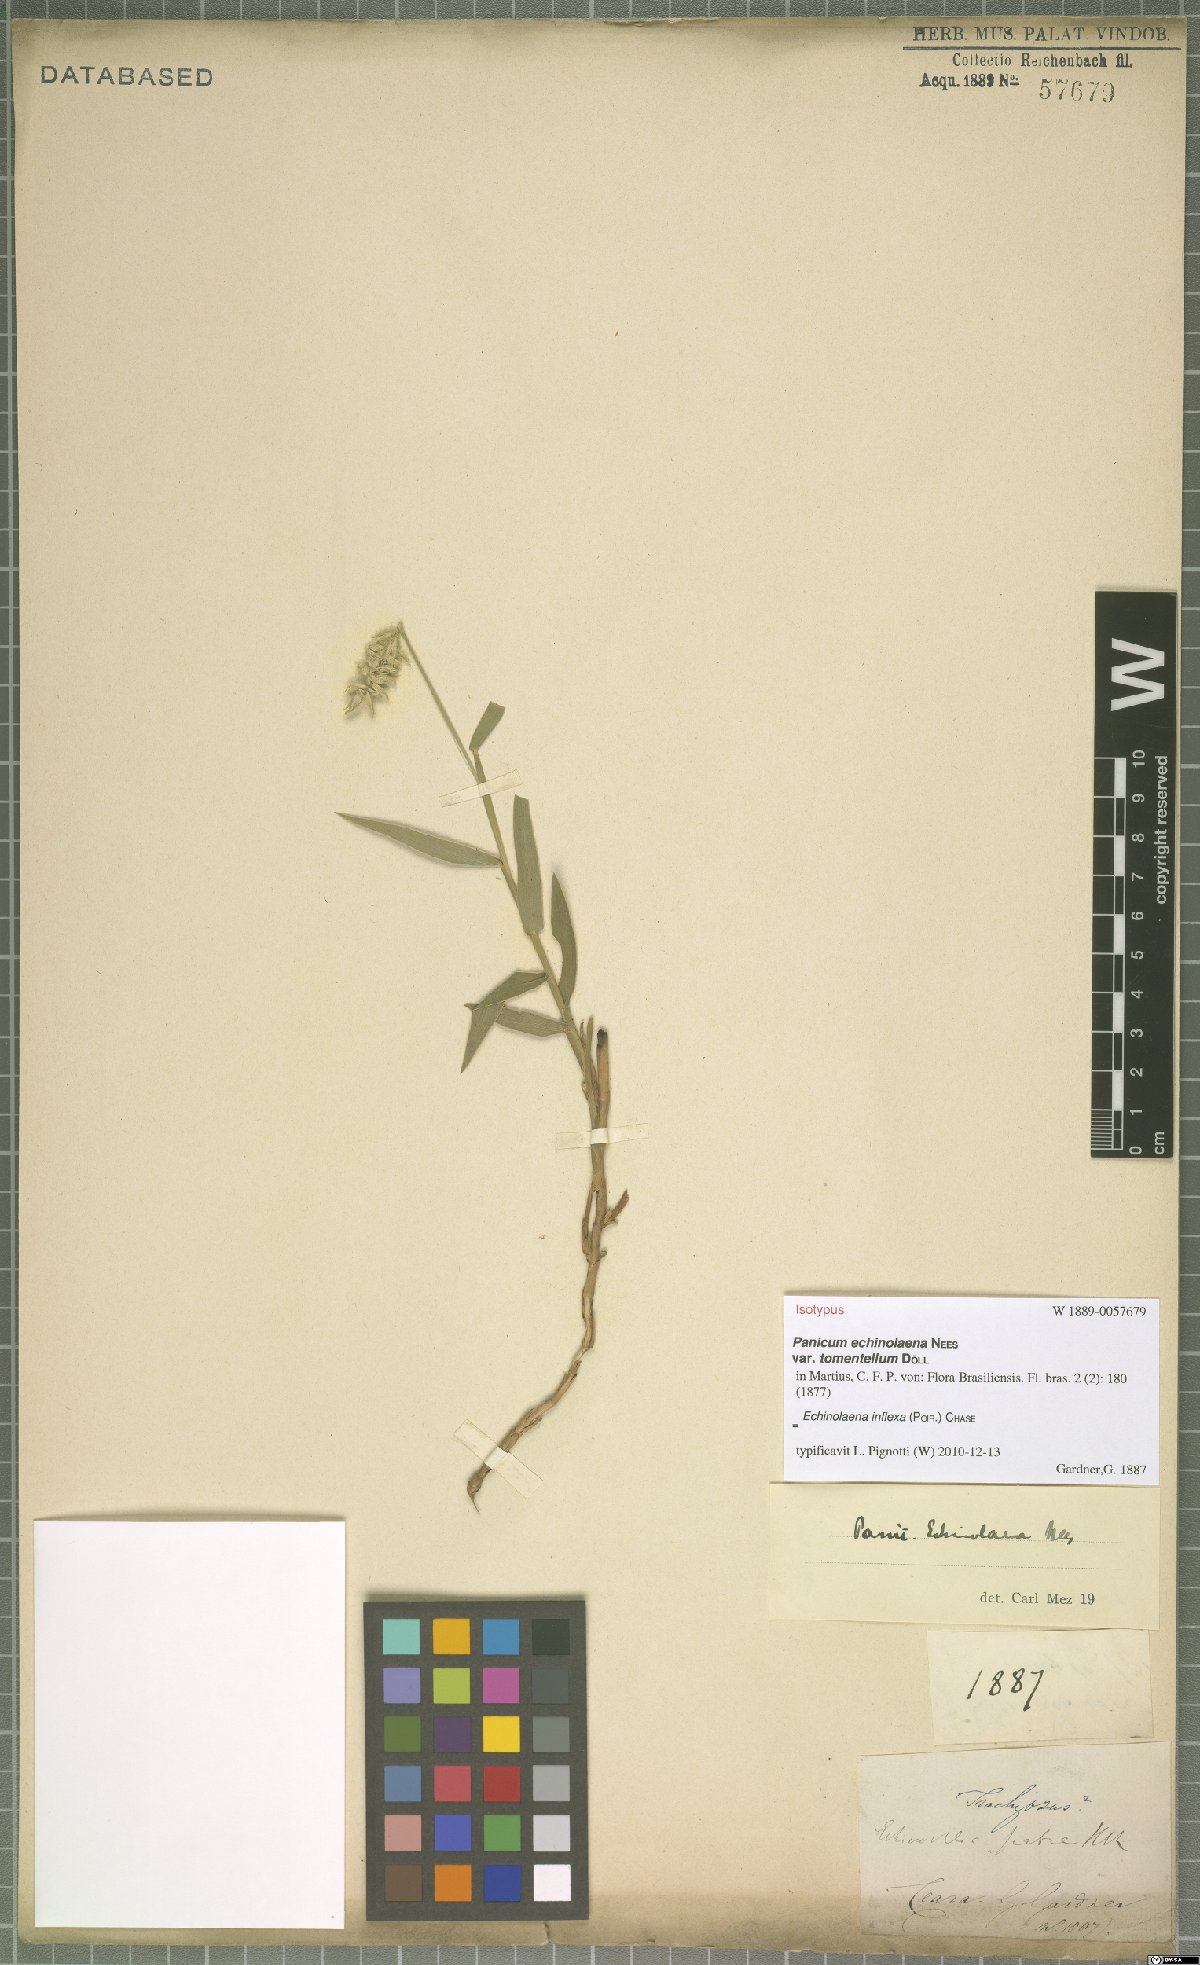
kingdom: Plantae
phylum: Tracheophyta
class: Liliopsida
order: Poales
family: Poaceae
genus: Echinolaena
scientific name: Echinolaena inflexa
